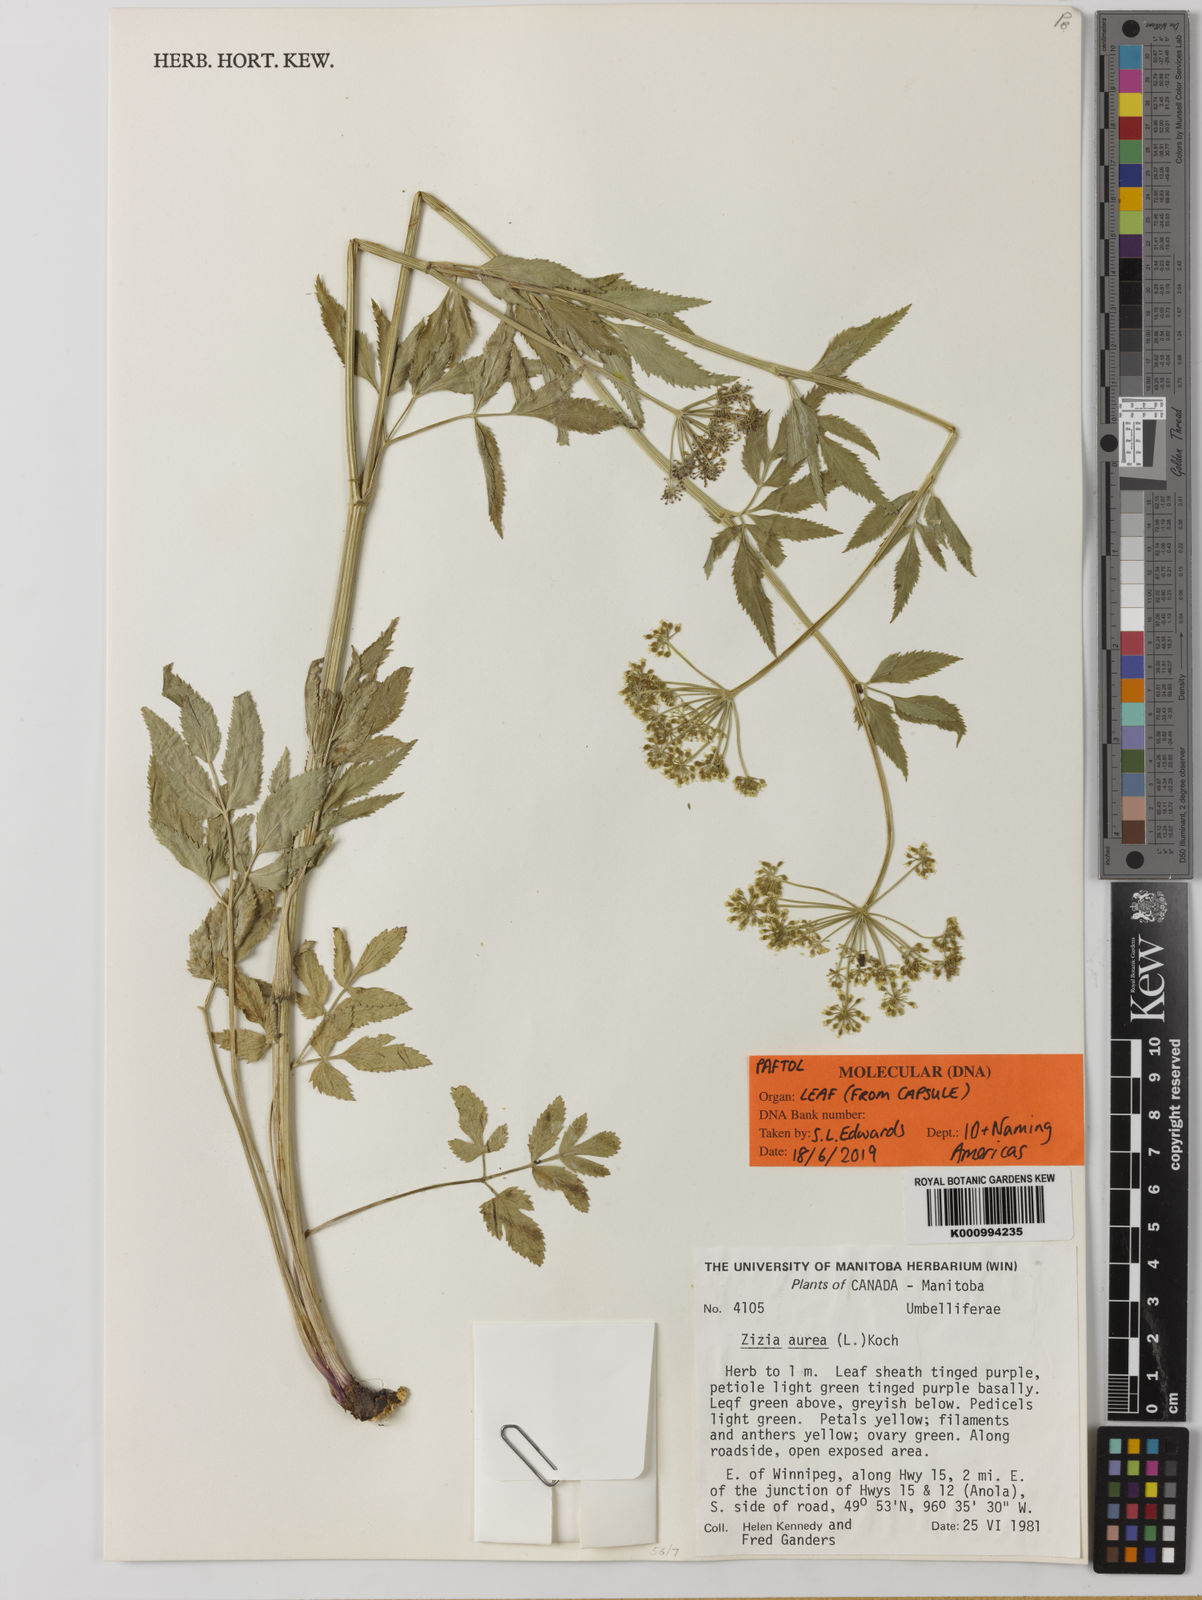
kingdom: Plantae
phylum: Tracheophyta
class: Magnoliopsida
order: Apiales
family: Apiaceae
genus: Zizia
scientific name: Zizia aurea
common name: Golden alexanders
